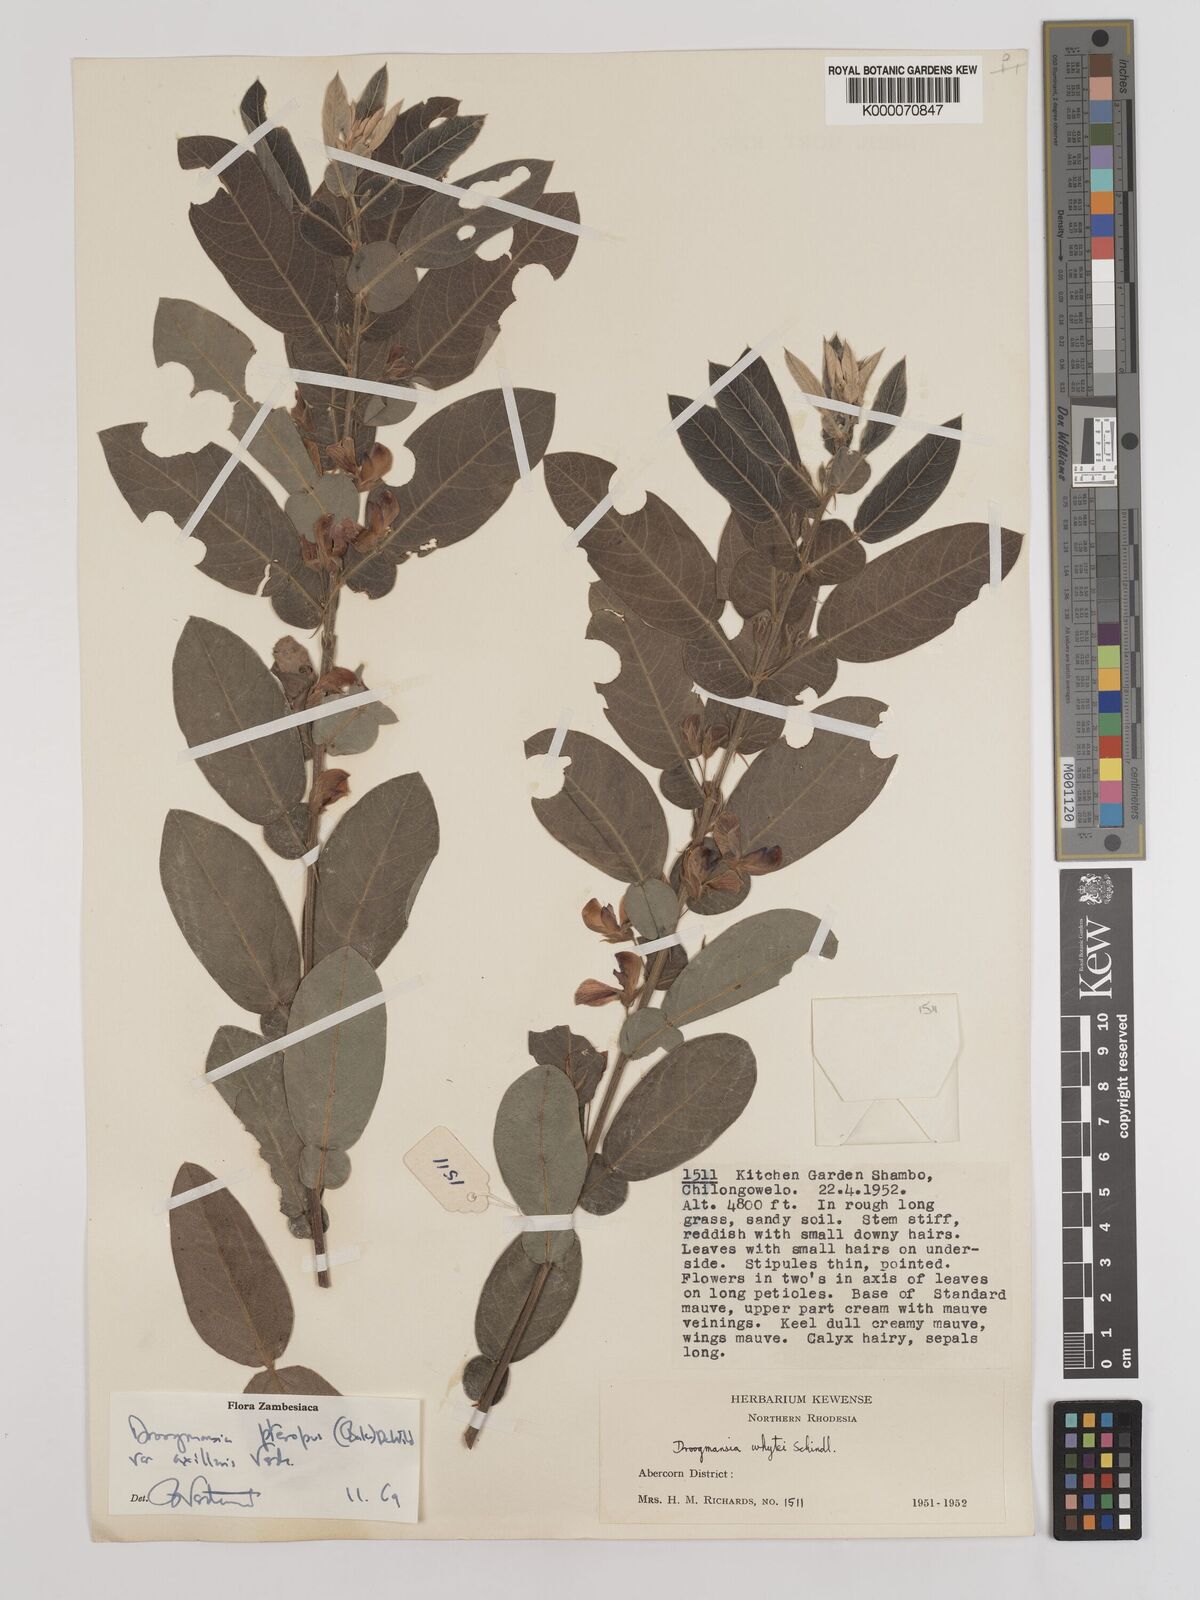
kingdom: Plantae
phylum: Tracheophyta
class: Magnoliopsida
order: Fabales
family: Fabaceae
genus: Droogmansia
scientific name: Droogmansia pteropus
